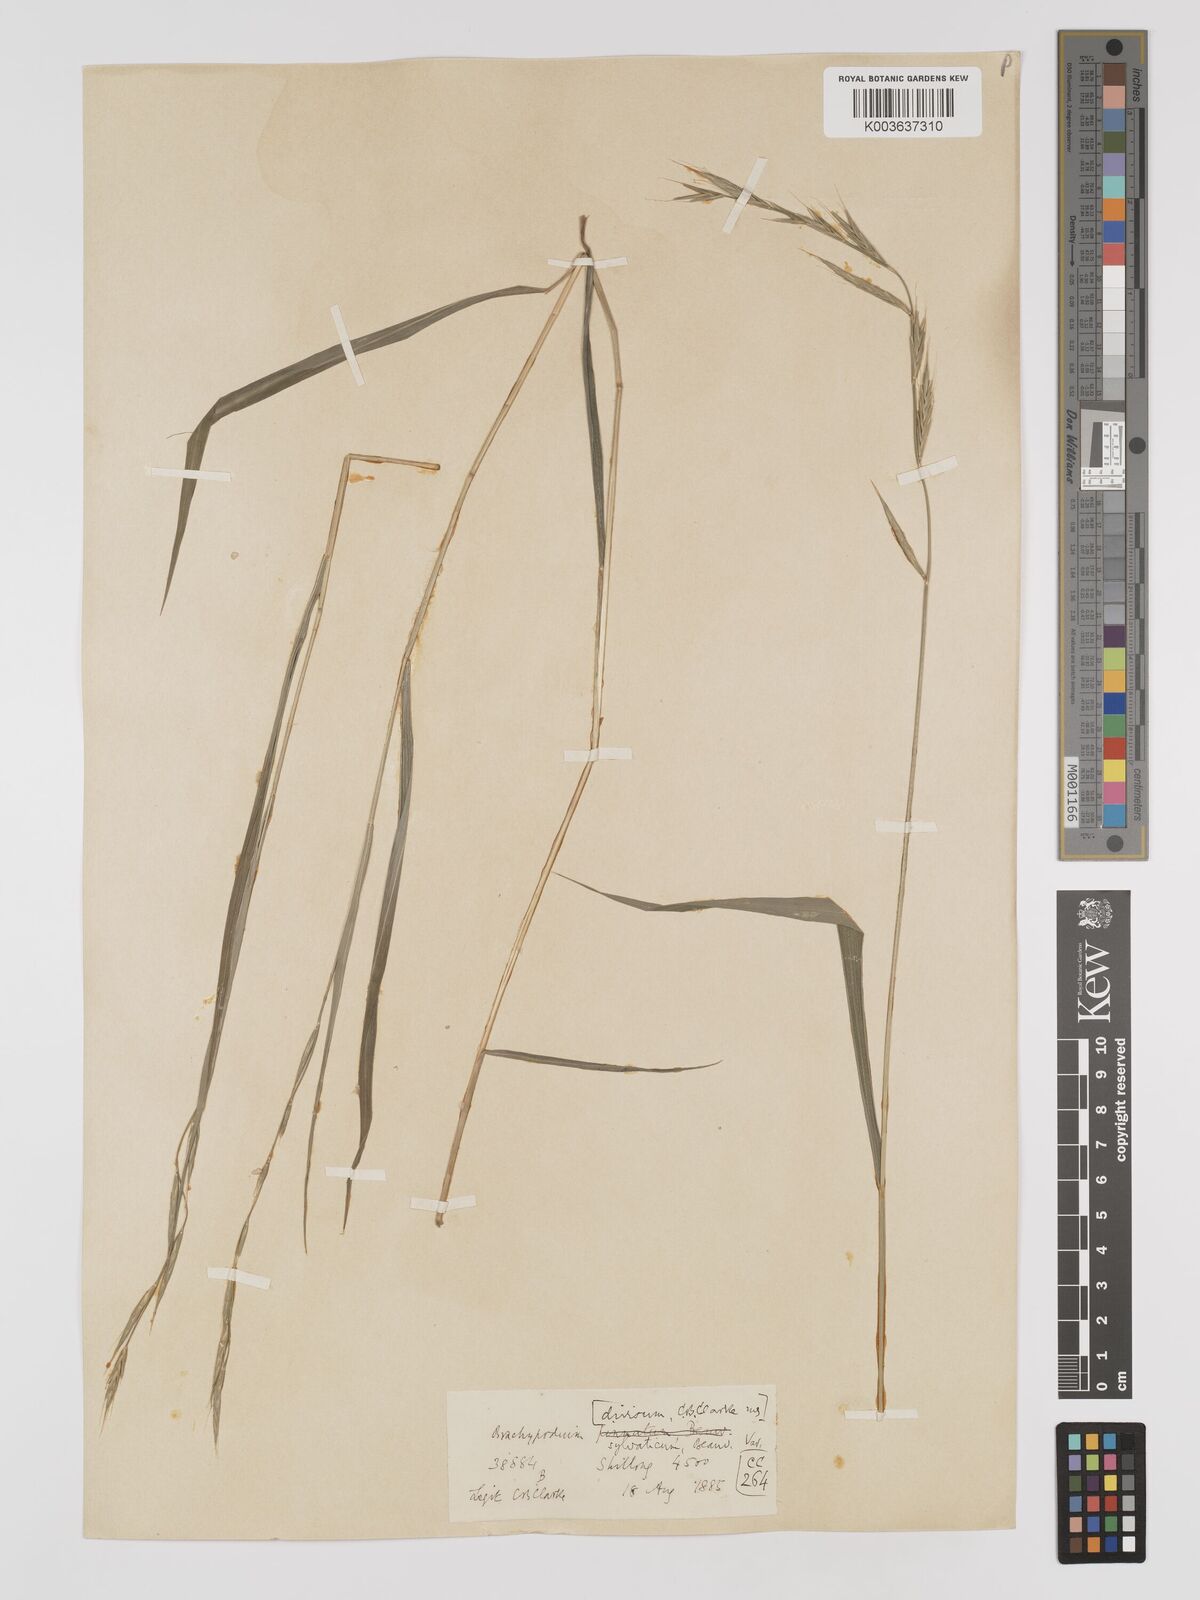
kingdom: Plantae
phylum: Tracheophyta
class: Liliopsida
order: Poales
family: Poaceae
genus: Brachypodium
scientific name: Brachypodium sylvaticum
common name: False-brome
